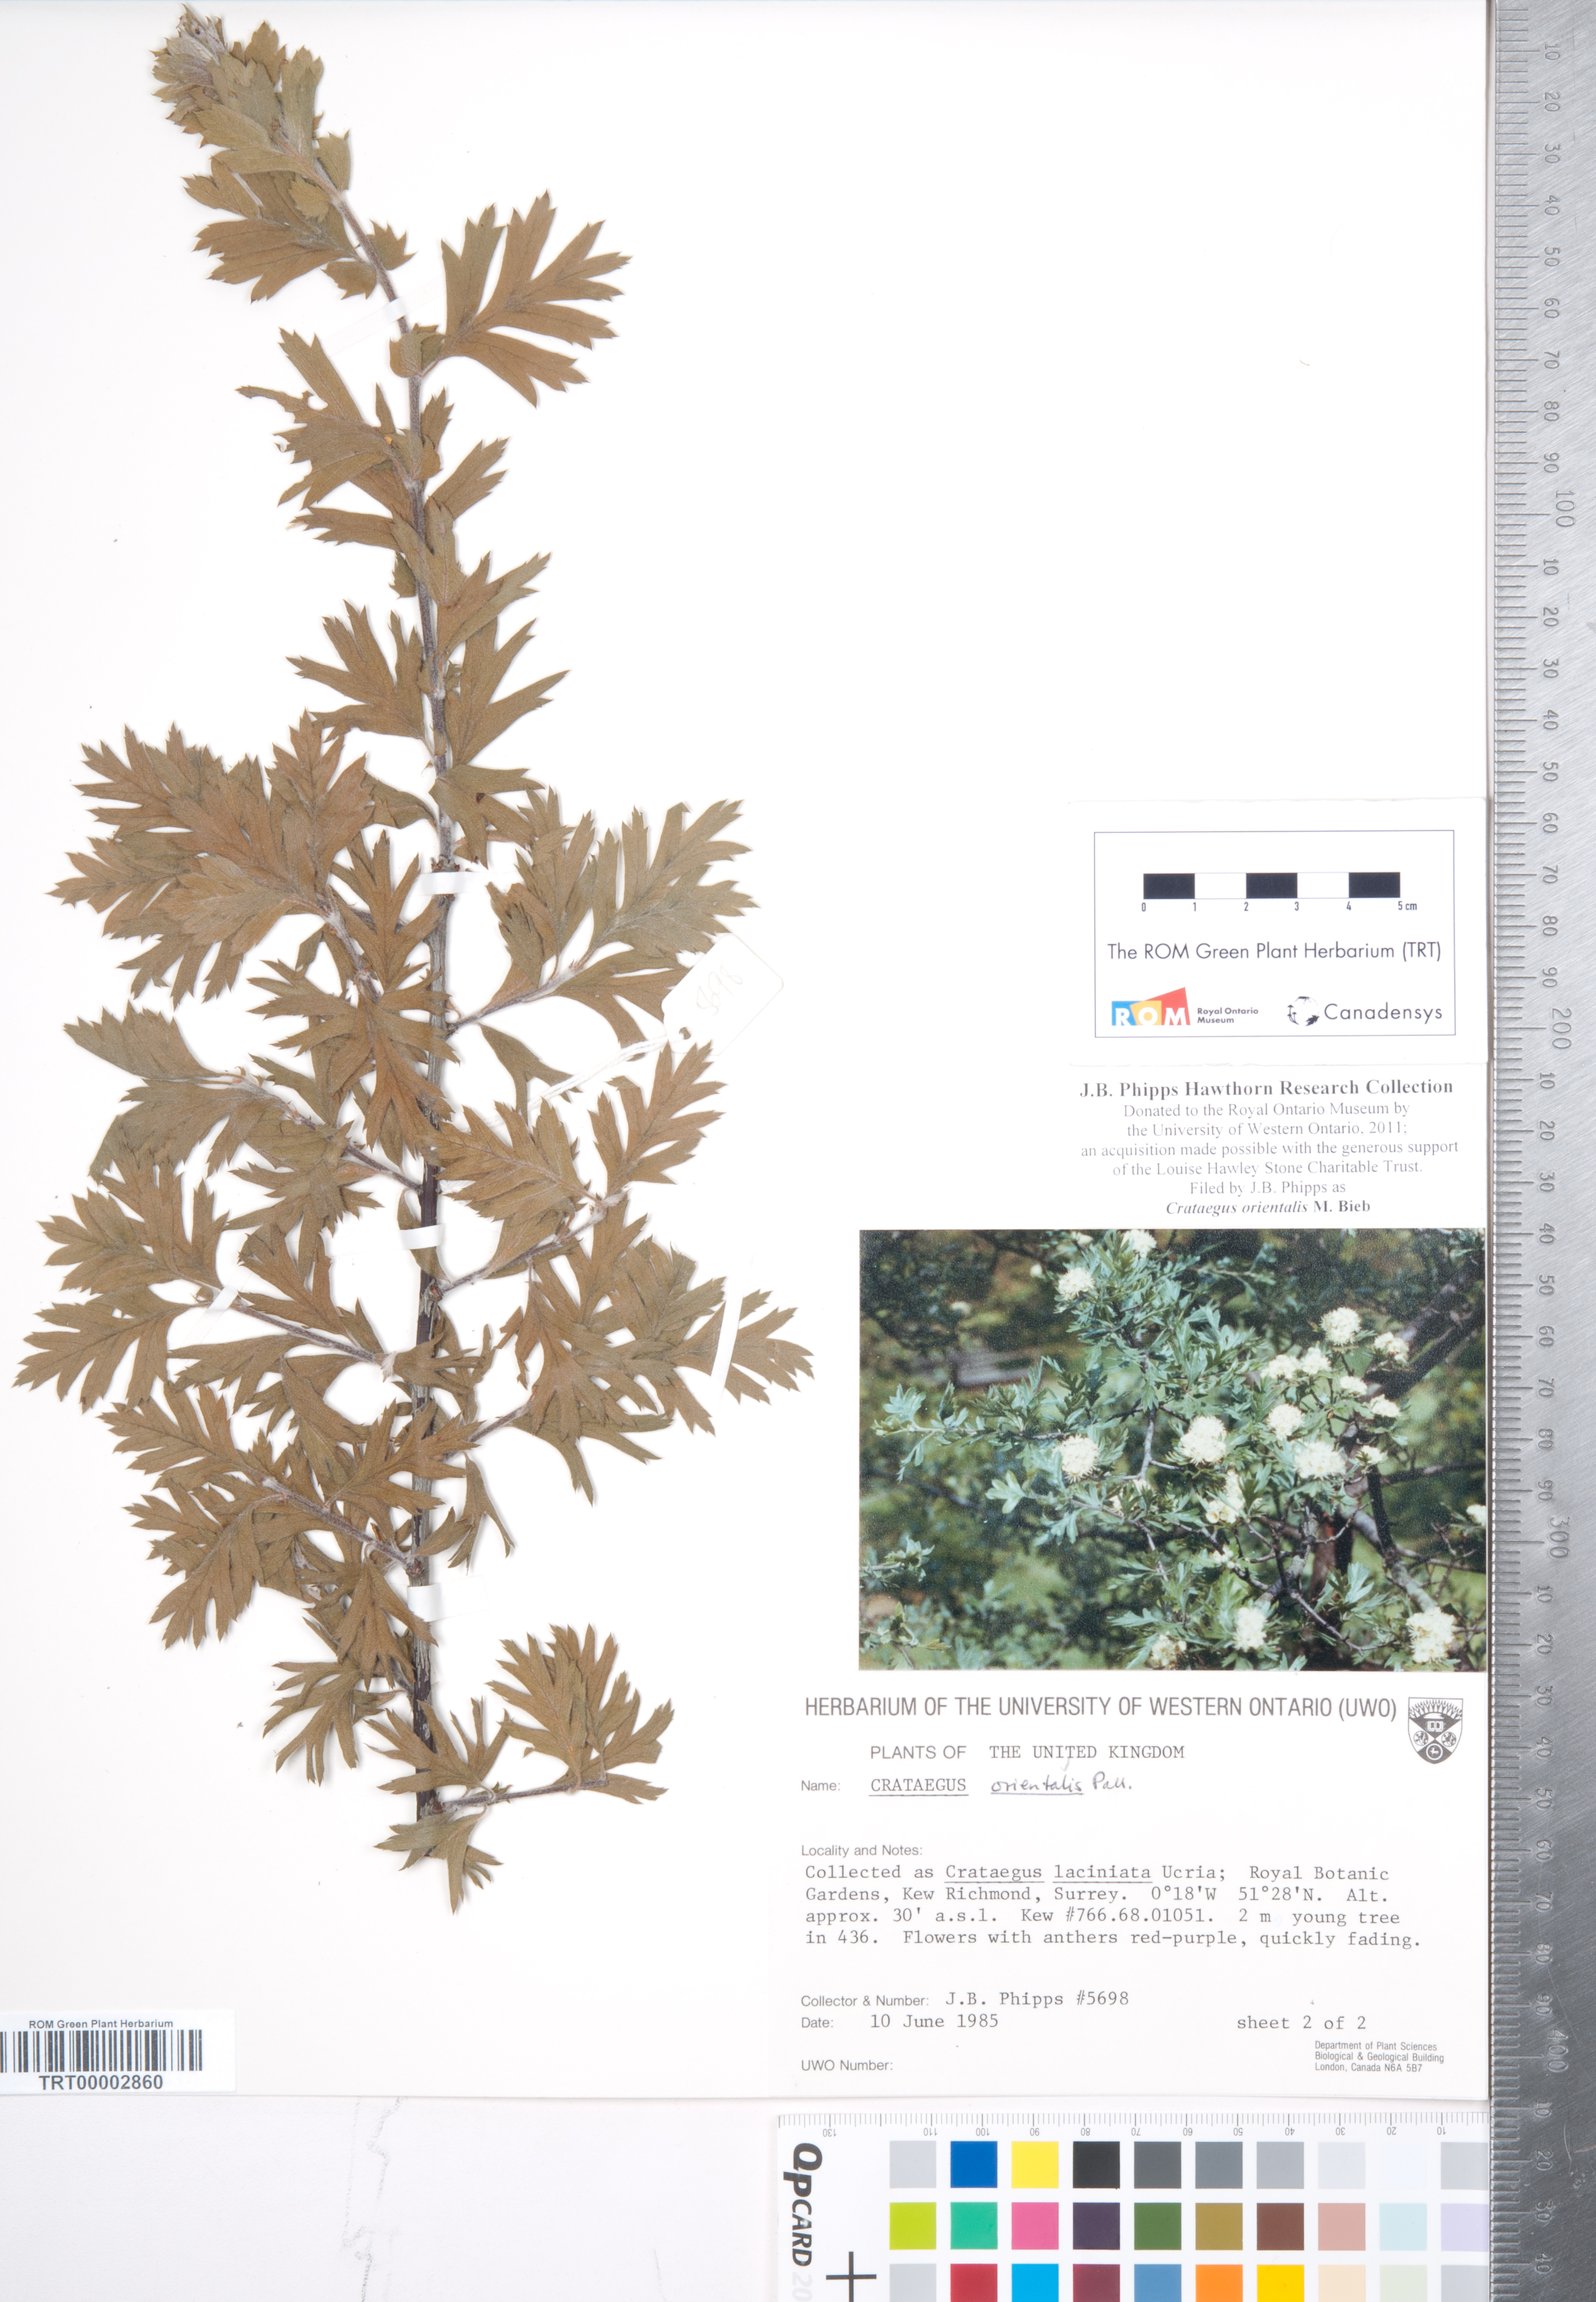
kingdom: Plantae
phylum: Tracheophyta
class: Magnoliopsida
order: Rosales
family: Rosaceae
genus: Crataegus
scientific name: Crataegus orientalis
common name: Oriental hawthorn
